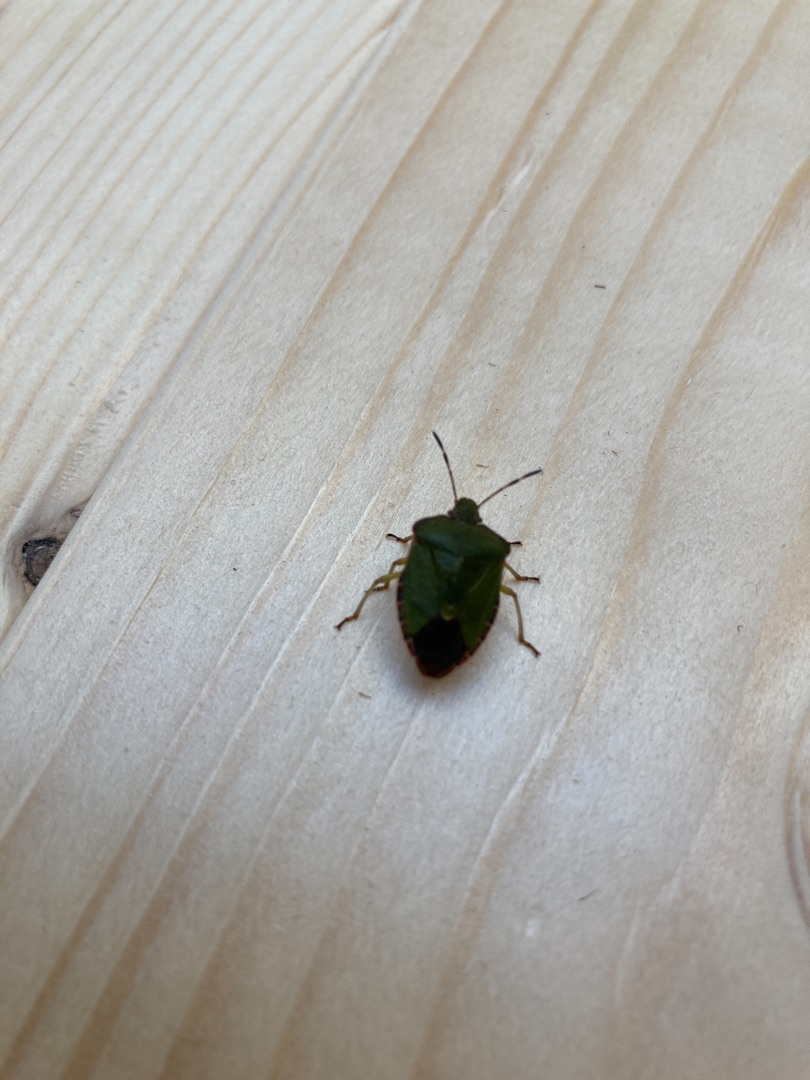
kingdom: Animalia
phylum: Arthropoda
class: Insecta
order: Hemiptera
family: Pentatomidae
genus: Palomena
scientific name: Palomena prasina
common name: Grøn bredtæge
